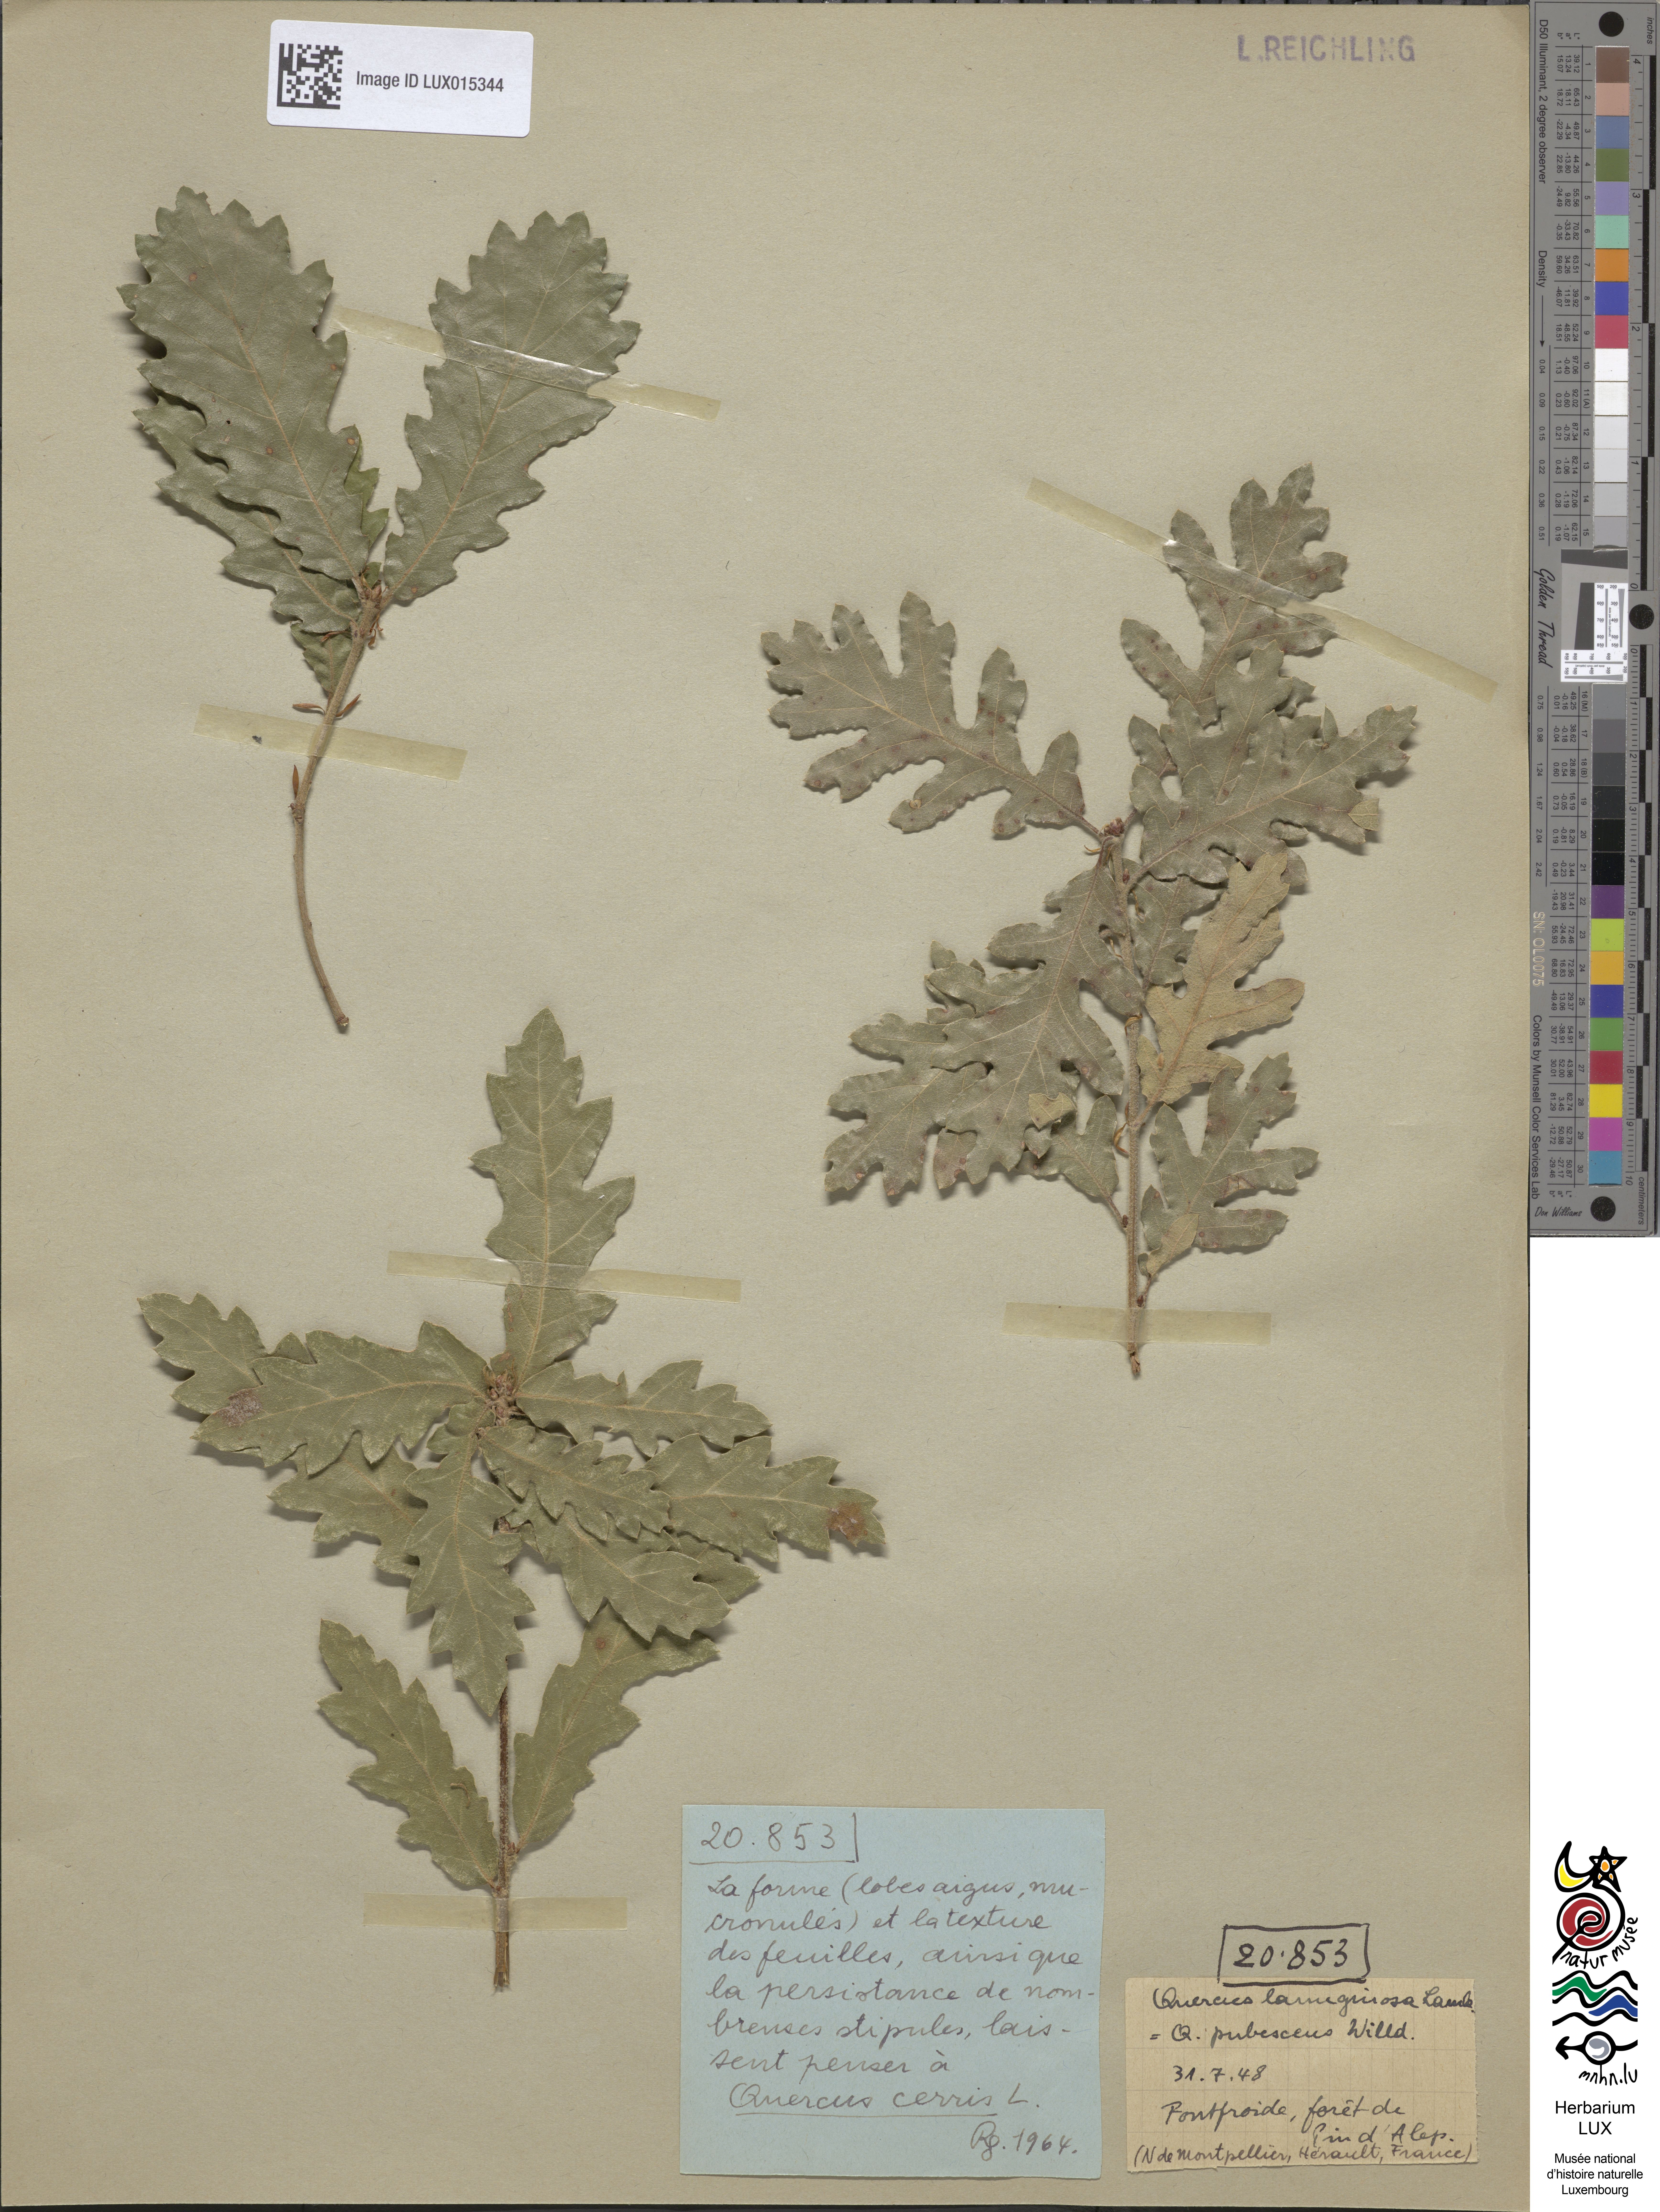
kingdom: Plantae
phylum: Tracheophyta
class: Magnoliopsida
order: Fagales
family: Fagaceae
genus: Quercus
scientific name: Quercus pubescens
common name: Downy oak
